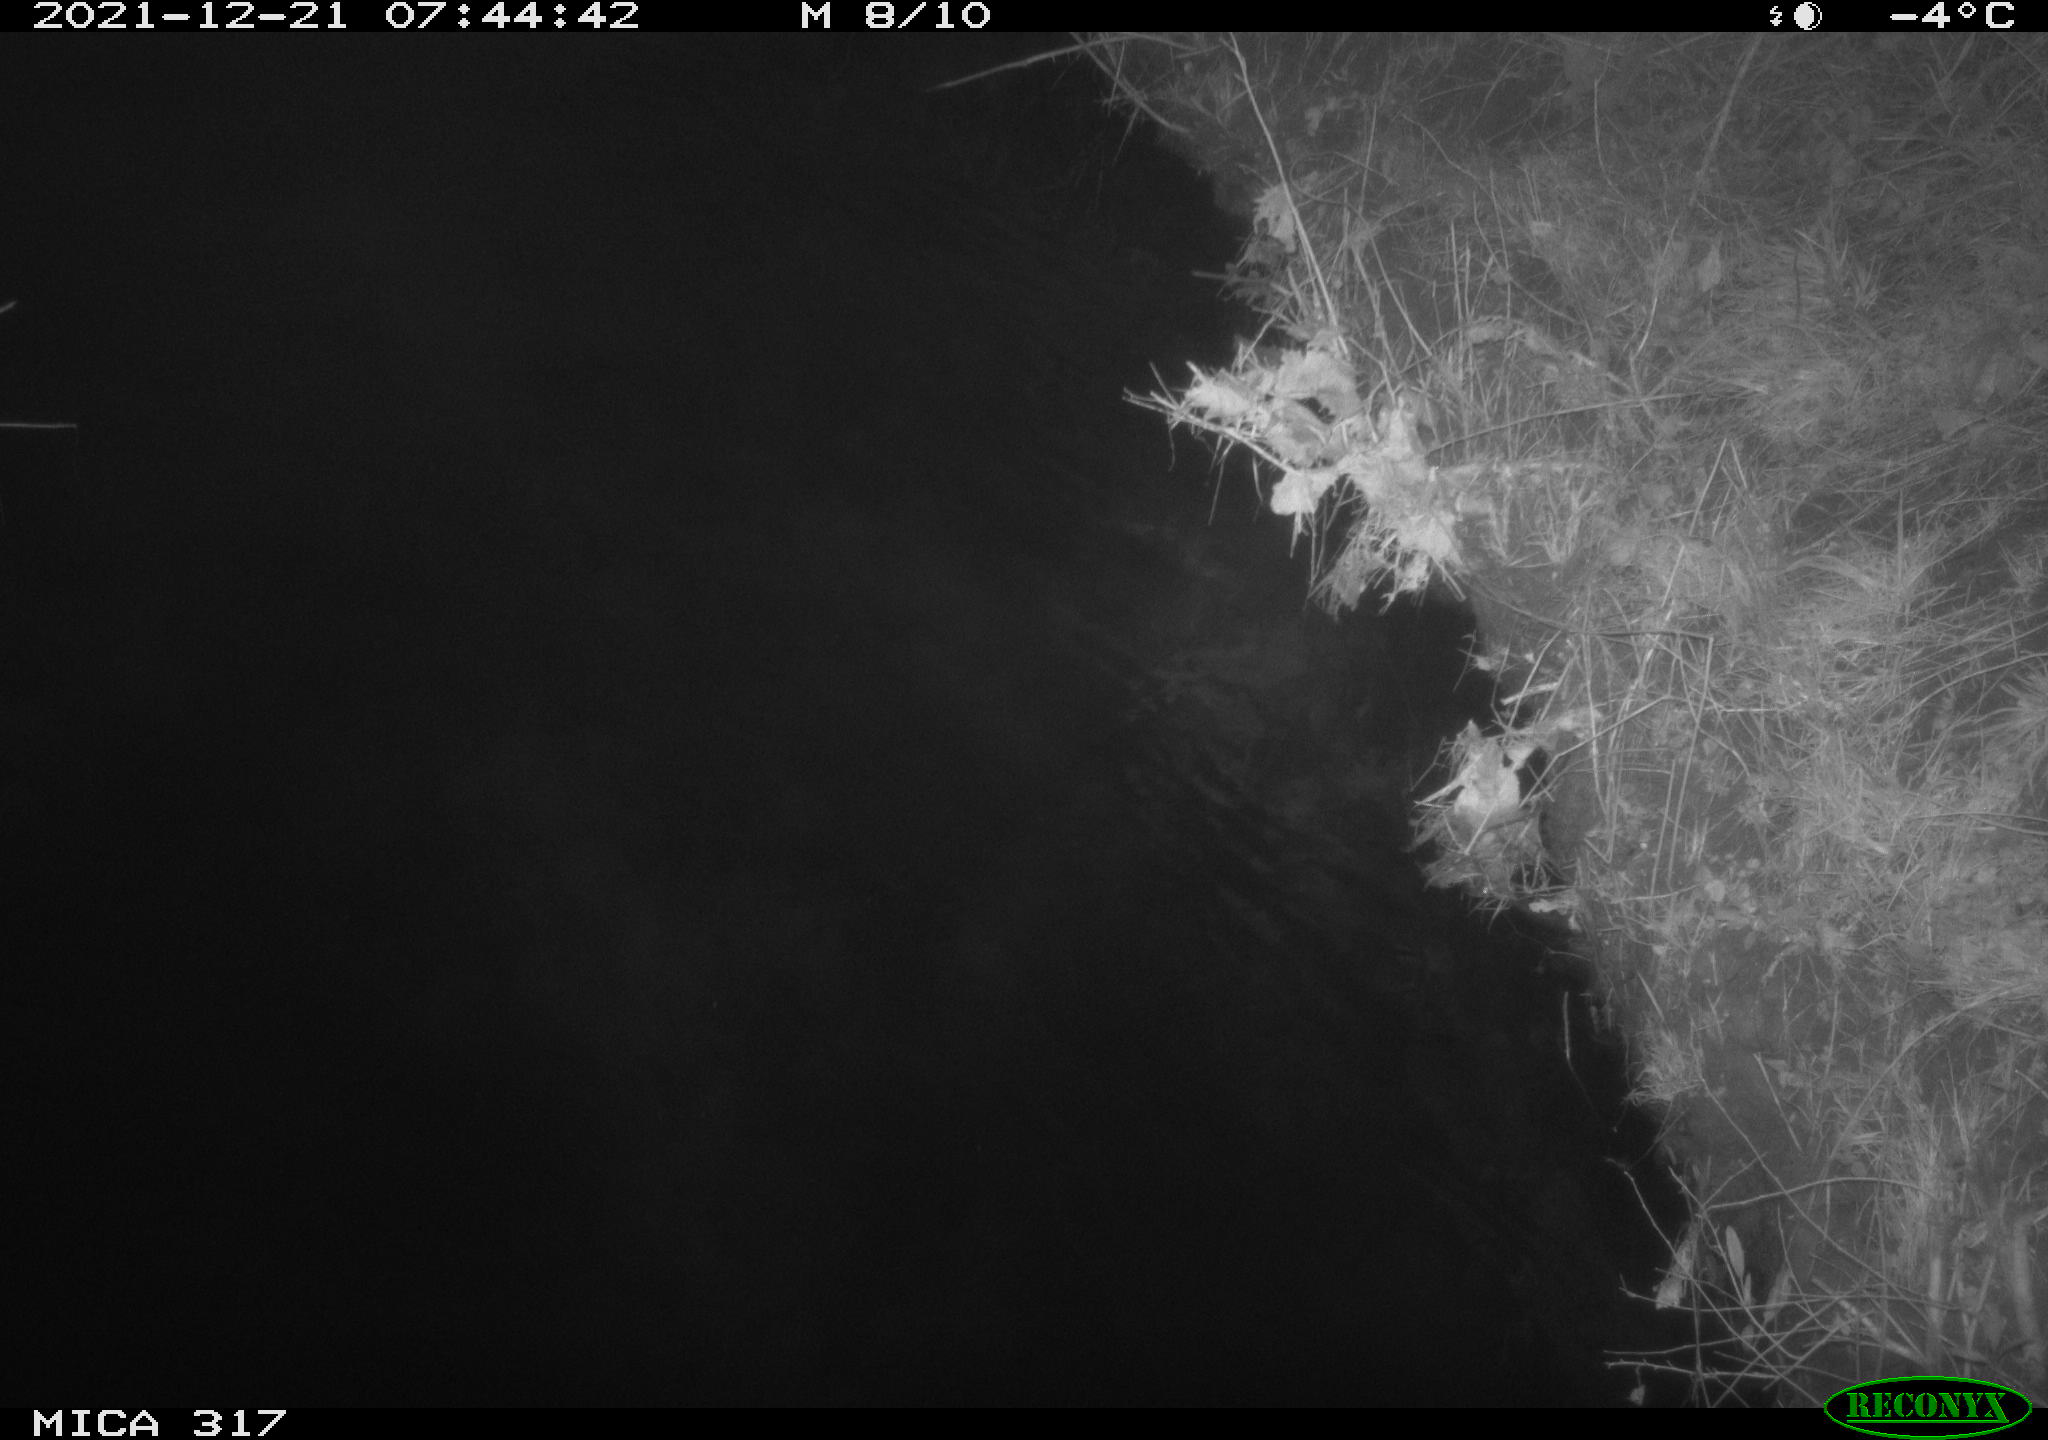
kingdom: Animalia
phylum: Chordata
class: Aves
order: Anseriformes
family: Anatidae
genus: Anas
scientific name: Anas platyrhynchos
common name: Mallard
